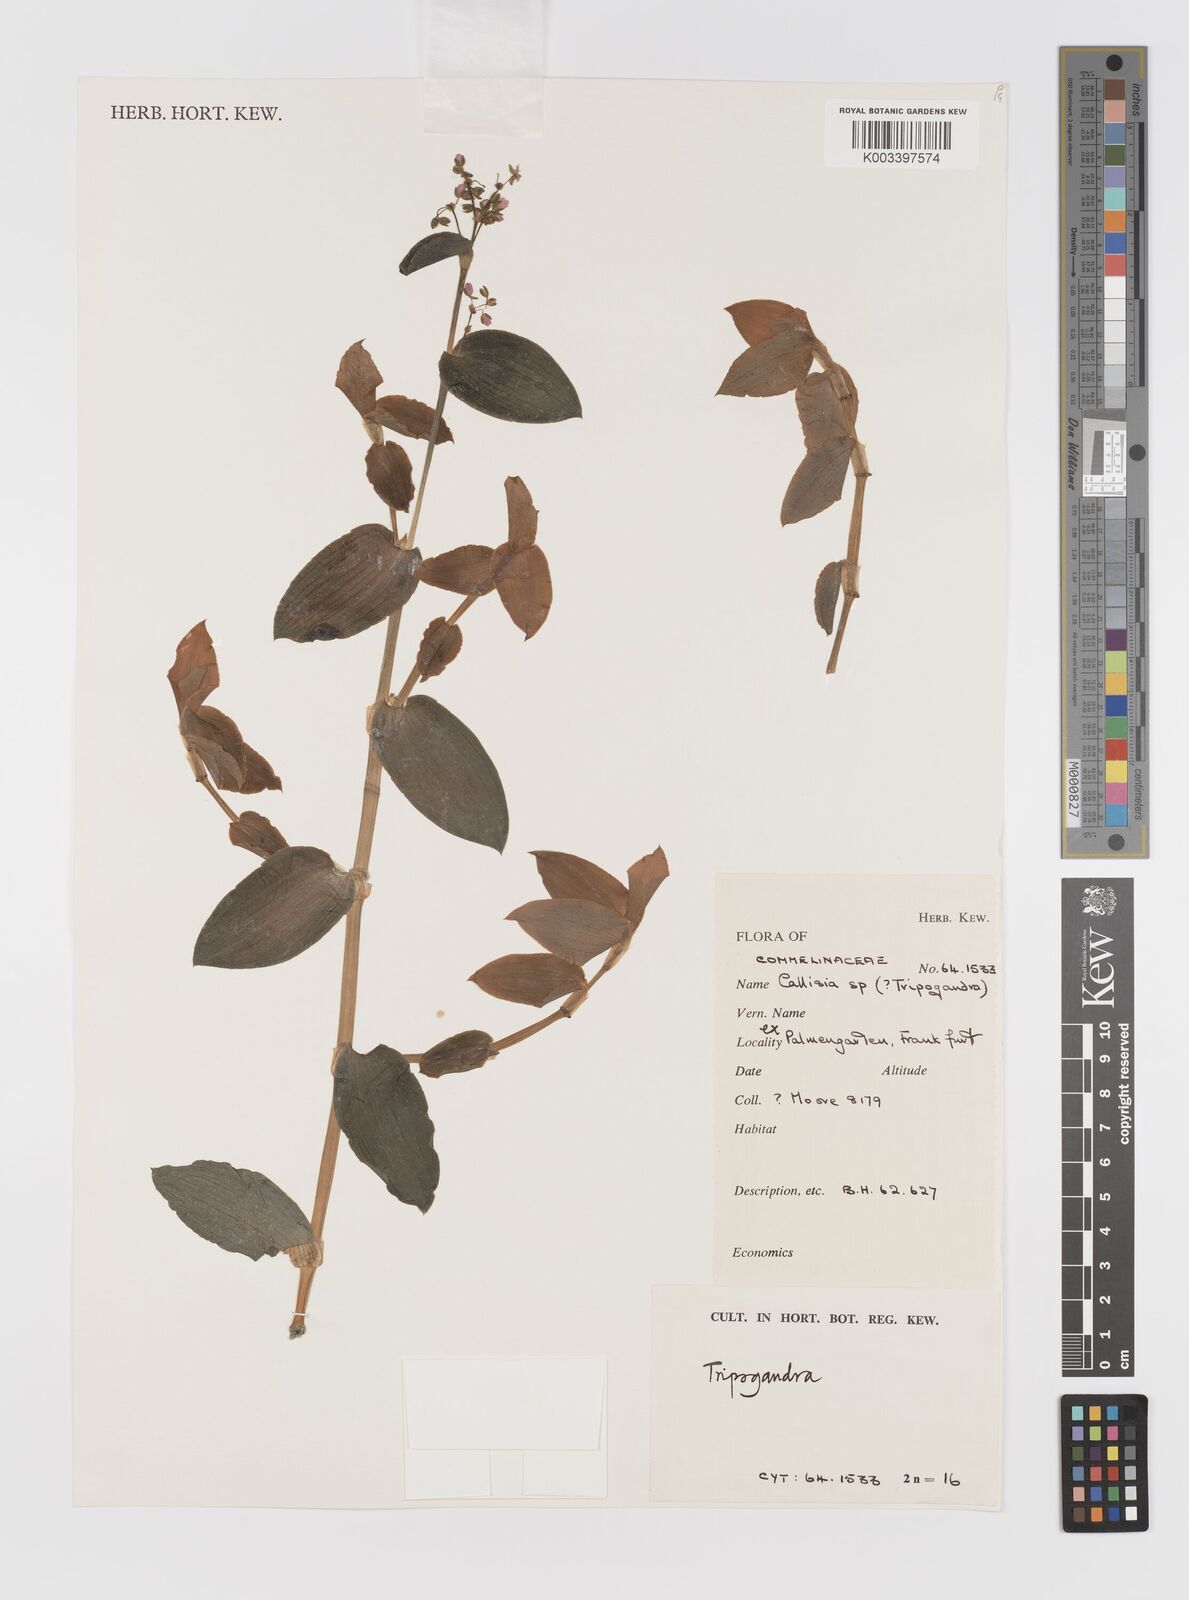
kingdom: Plantae
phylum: Tracheophyta
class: Liliopsida
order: Commelinales
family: Commelinaceae
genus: Callisia
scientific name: Callisia
